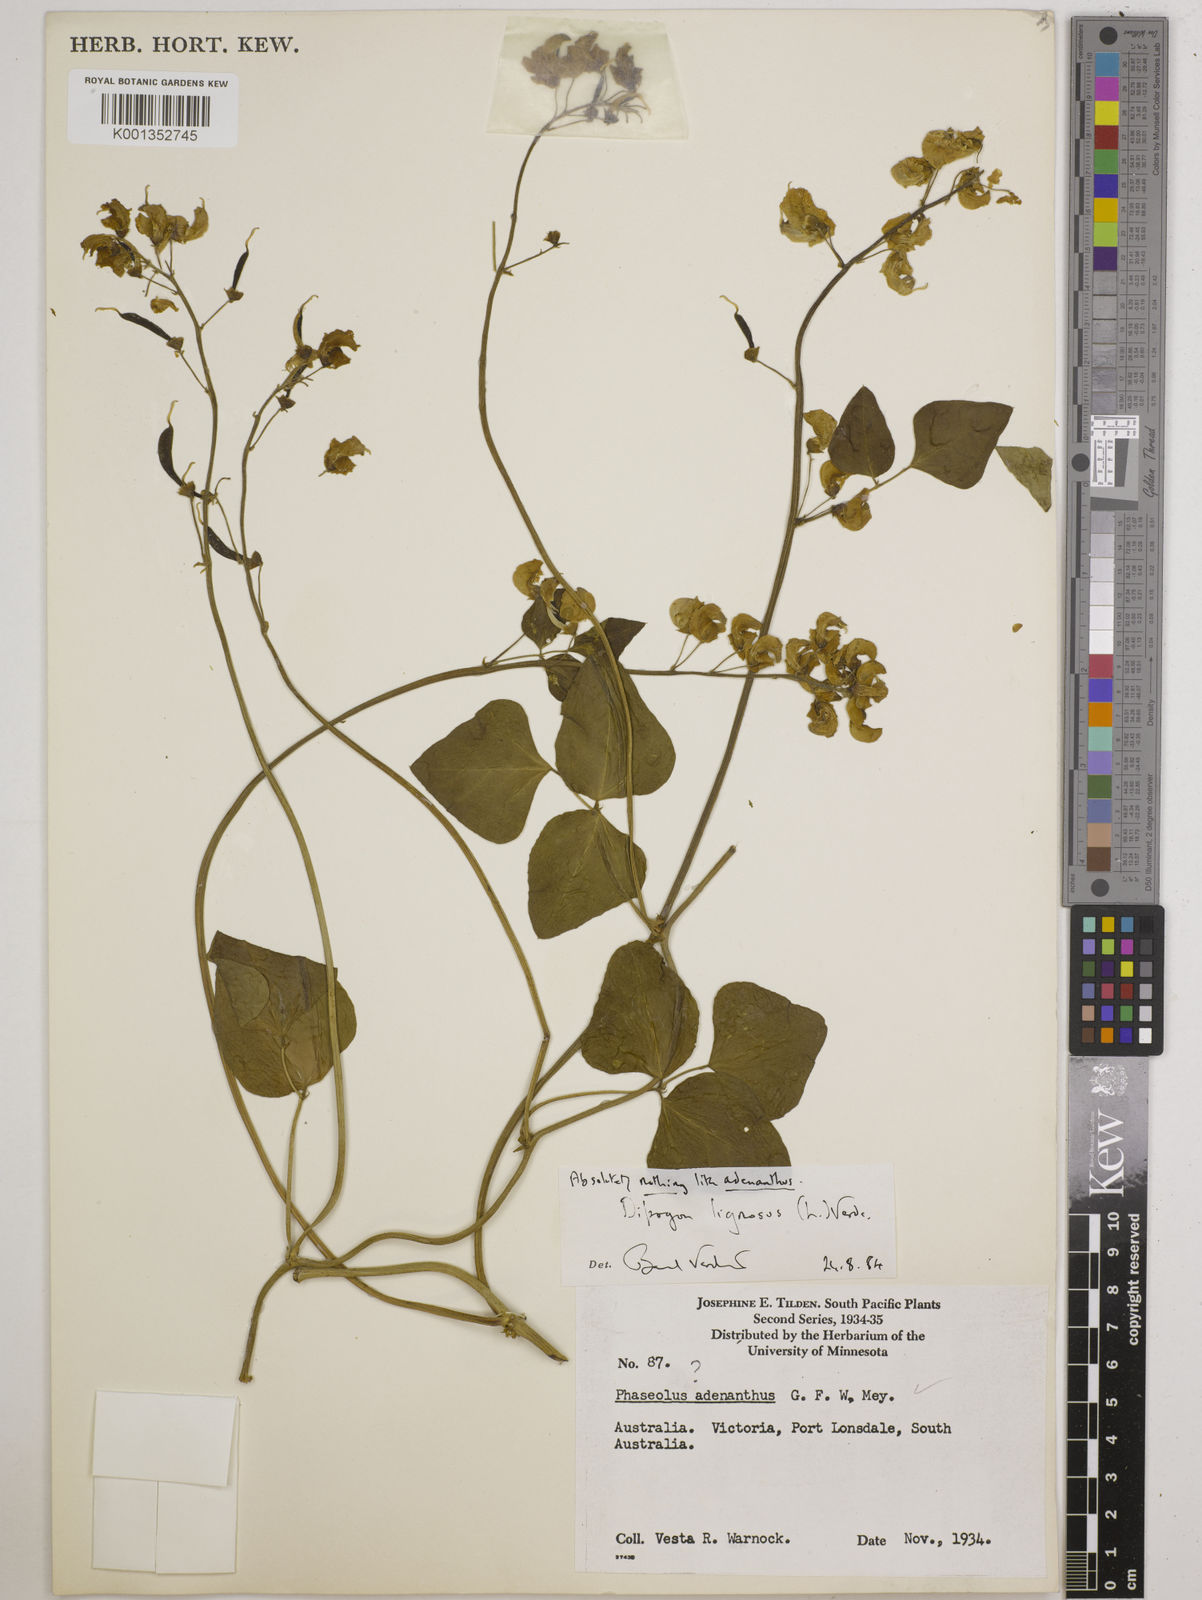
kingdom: Plantae
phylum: Tracheophyta
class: Magnoliopsida
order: Fabales
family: Fabaceae
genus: Dipogon
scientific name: Dipogon lignosus
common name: Okie bean
